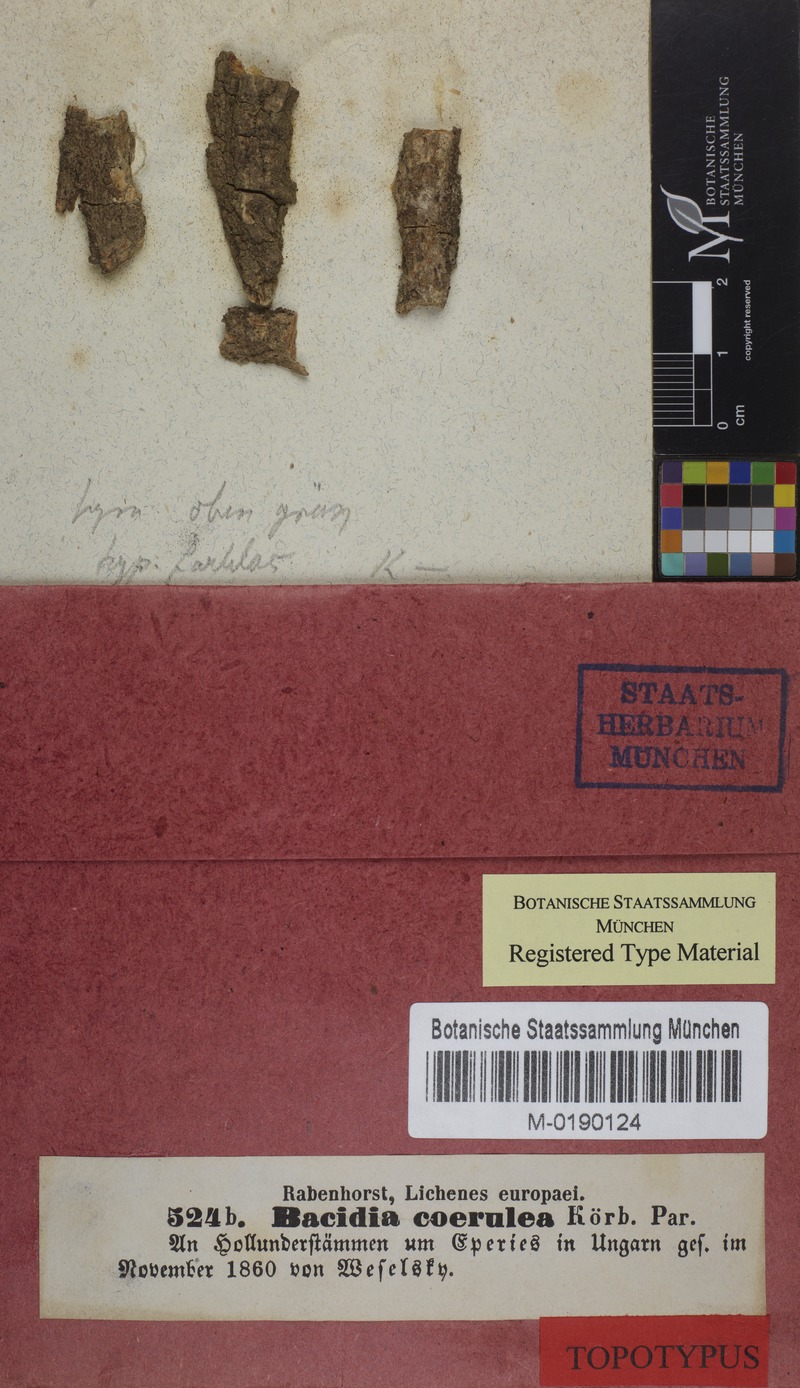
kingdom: Fungi
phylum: Ascomycota
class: Lecanoromycetes
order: Lecanorales
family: Ramalinaceae
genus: Bacidia
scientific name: Bacidia friesiana
